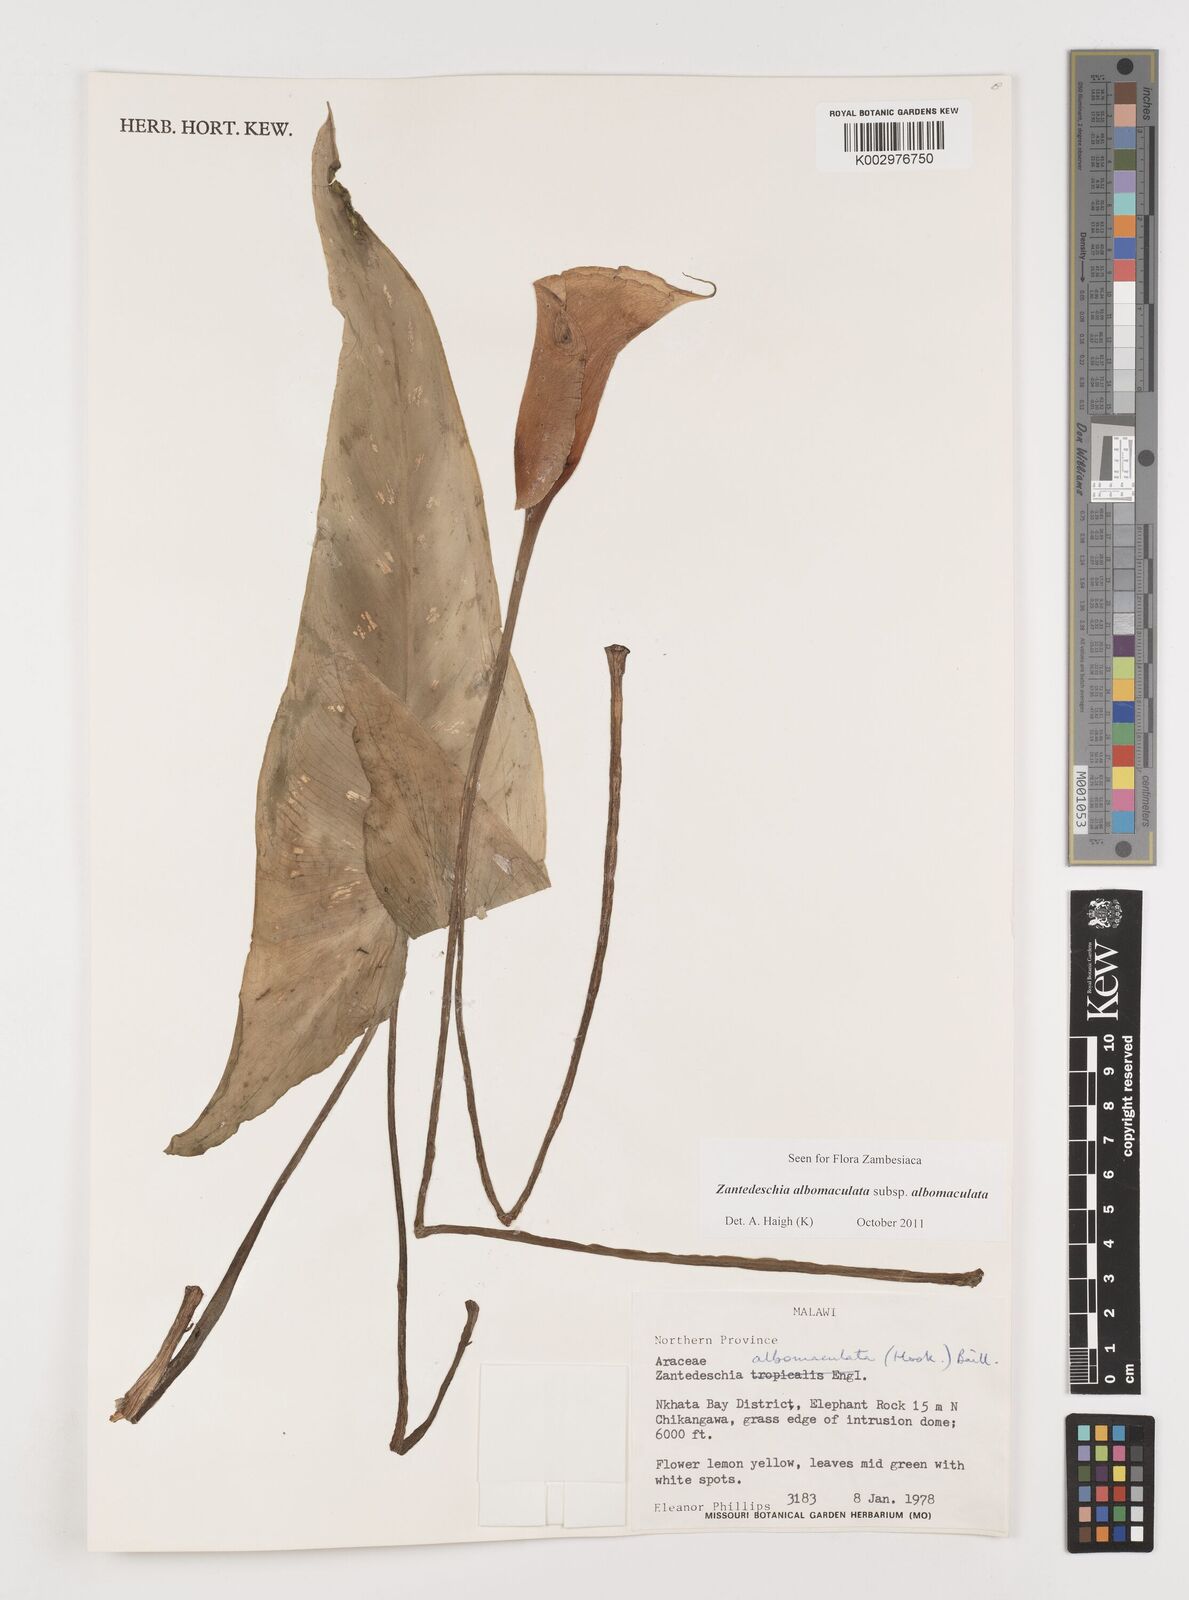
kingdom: Plantae
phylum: Tracheophyta
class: Liliopsida
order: Alismatales
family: Araceae
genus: Zantedeschia
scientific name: Zantedeschia albomaculata
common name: Spotted calla lily
